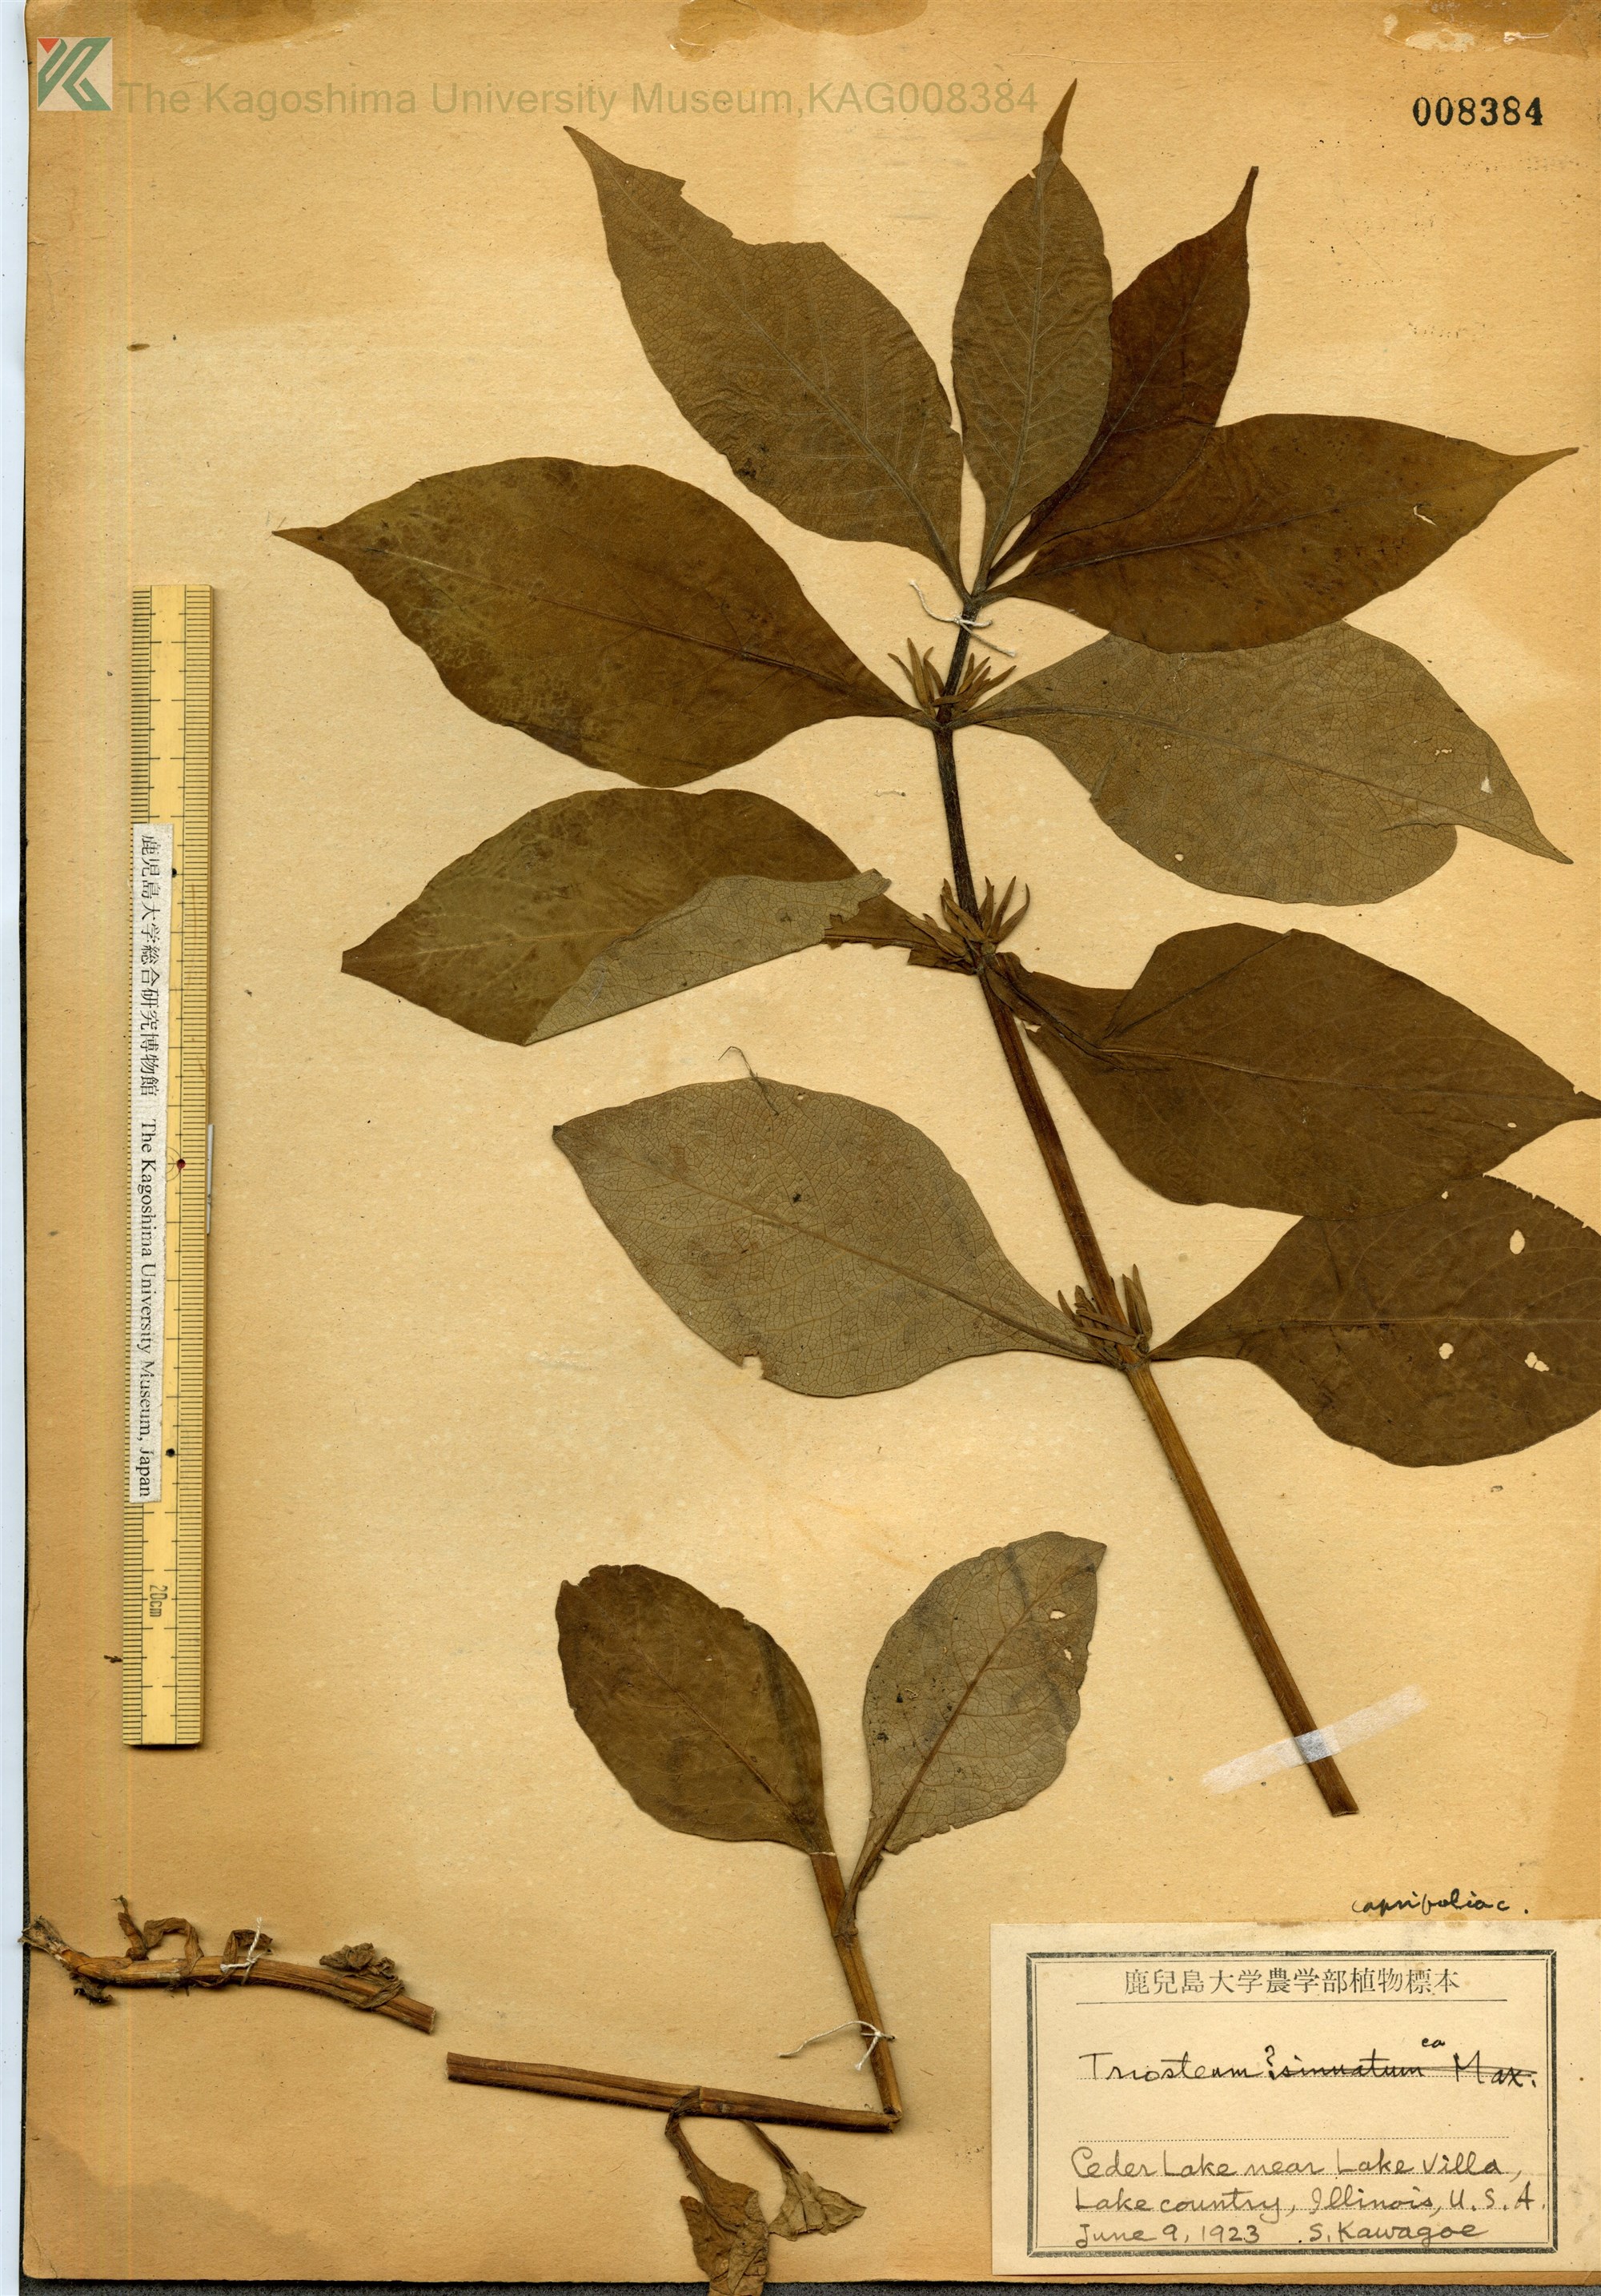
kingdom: Plantae
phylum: Tracheophyta
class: Magnoliopsida
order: Dipsacales
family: Caprifoliaceae
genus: Triosteum
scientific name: Triosteum sinuatum
